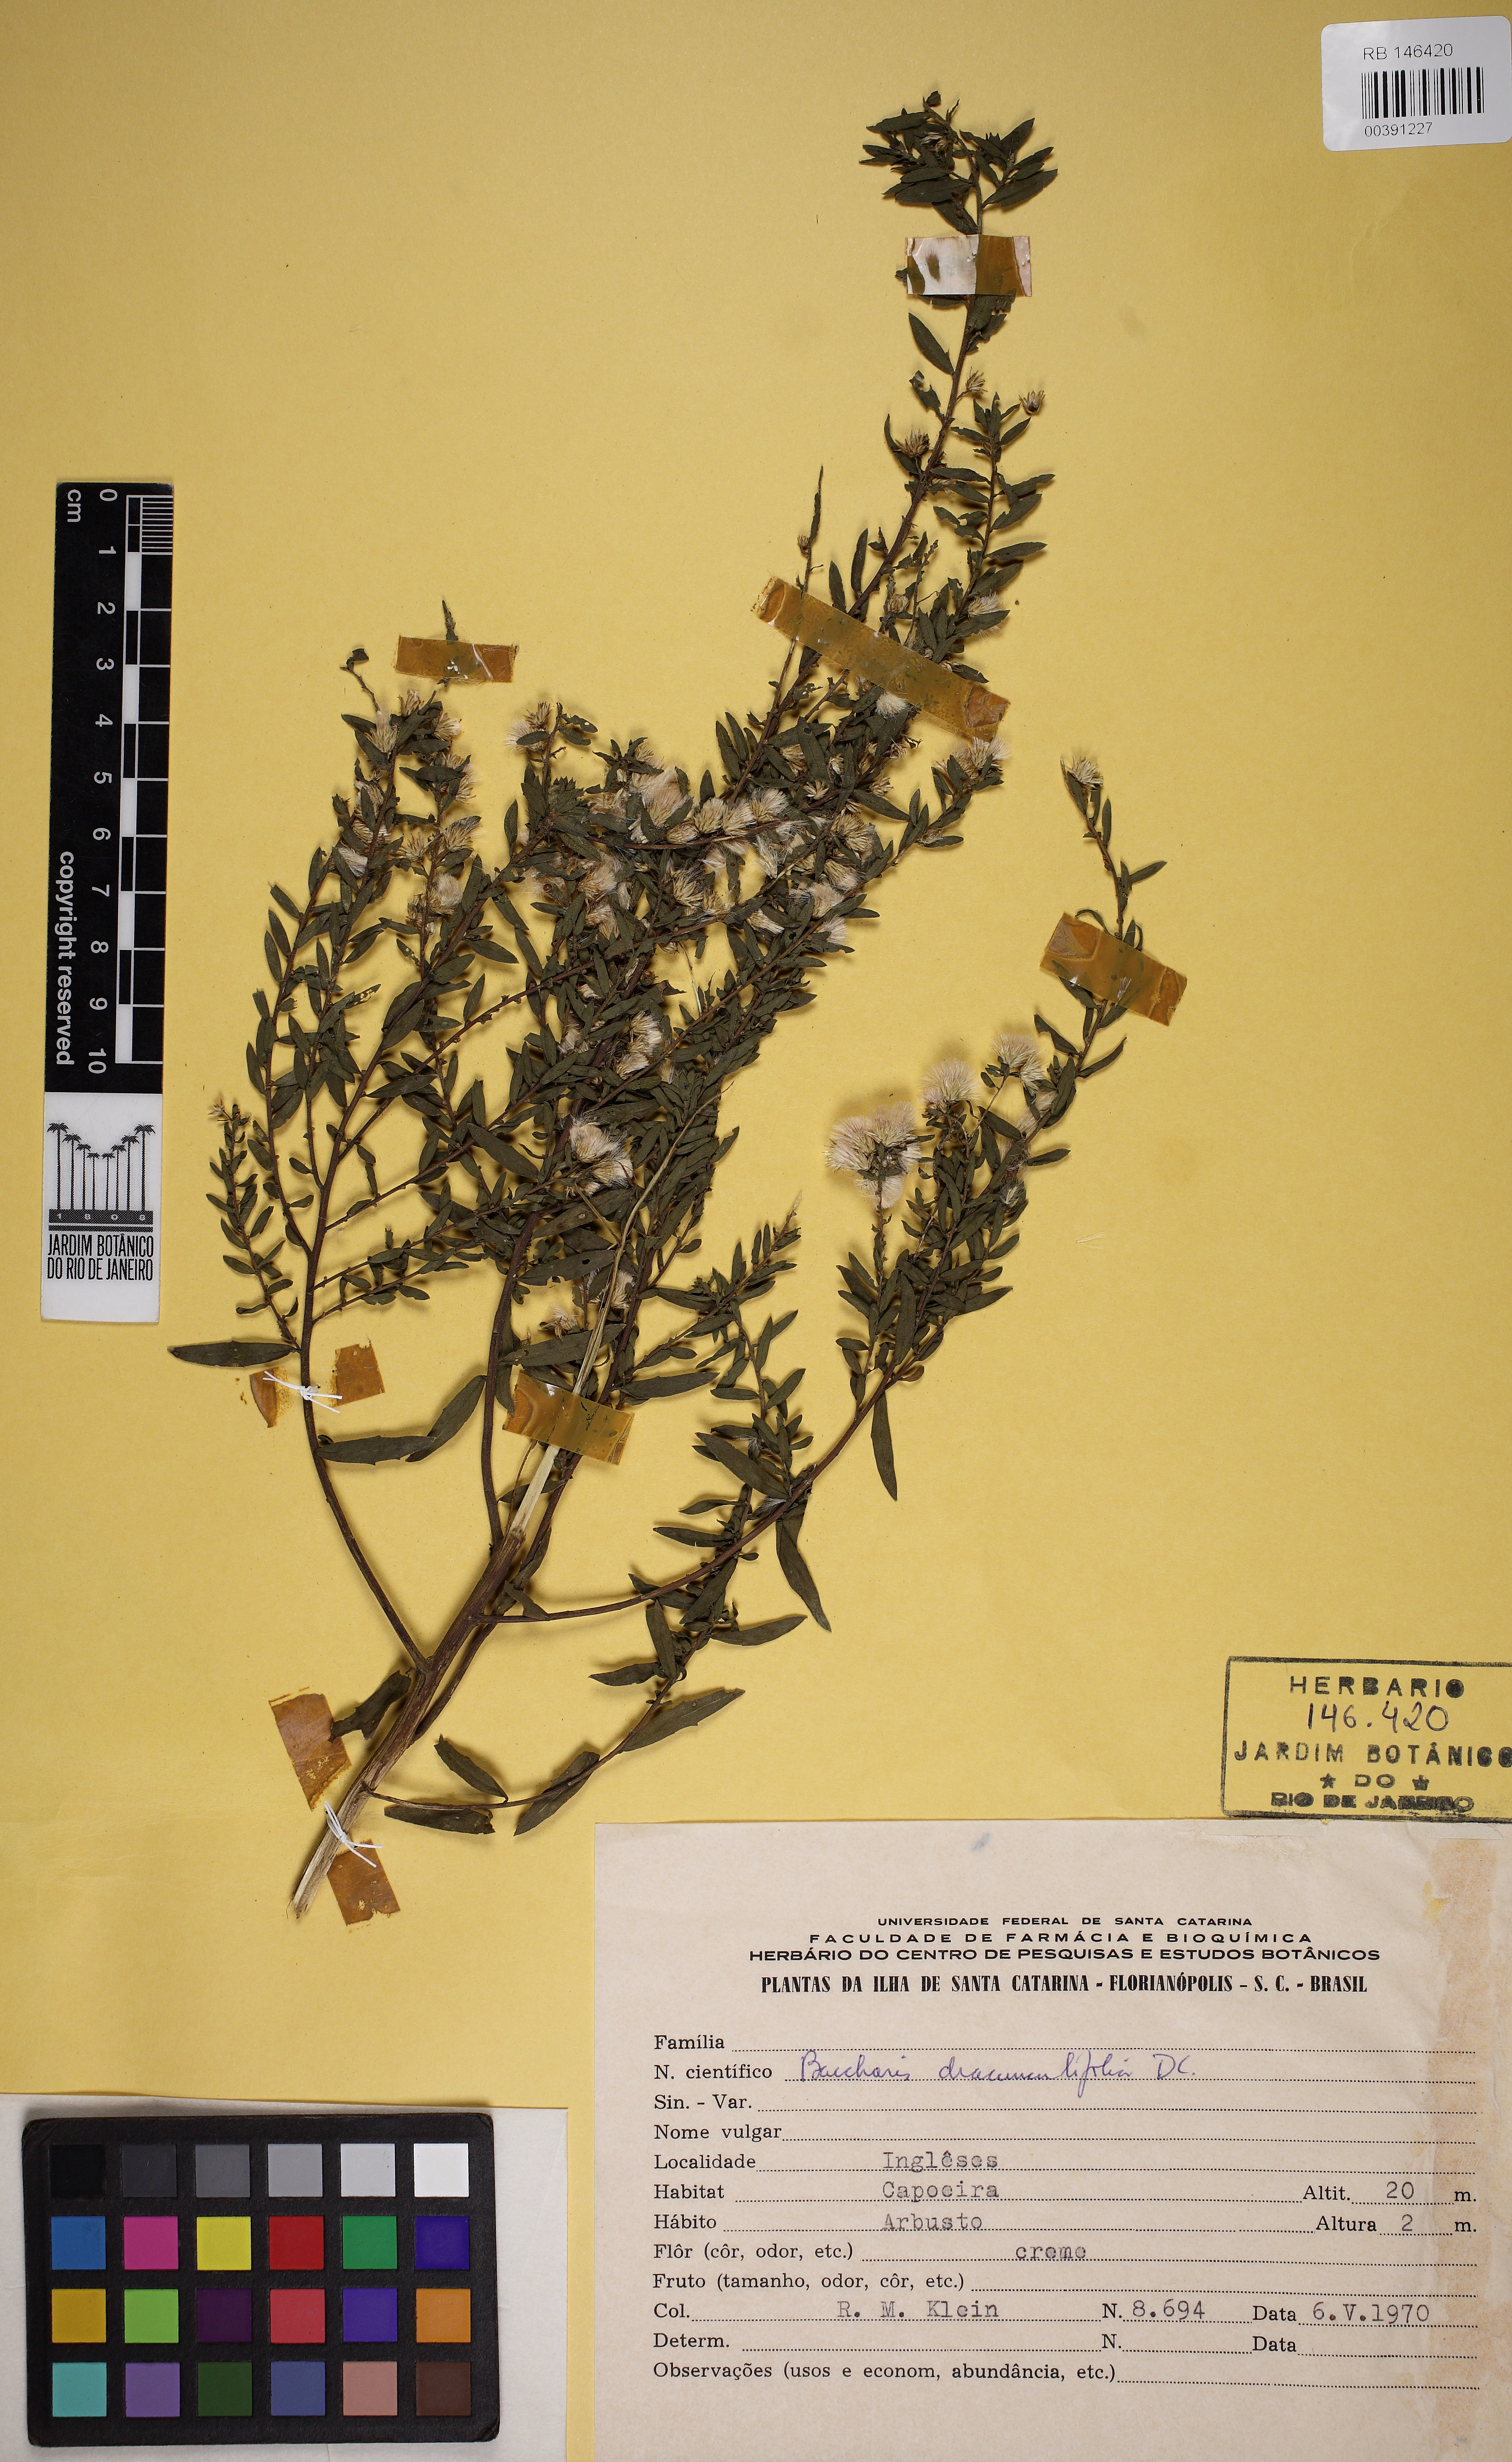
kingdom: Plantae
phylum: Tracheophyta
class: Magnoliopsida
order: Asterales
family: Asteraceae
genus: Baccharis
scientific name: Baccharis dracunculifolia
